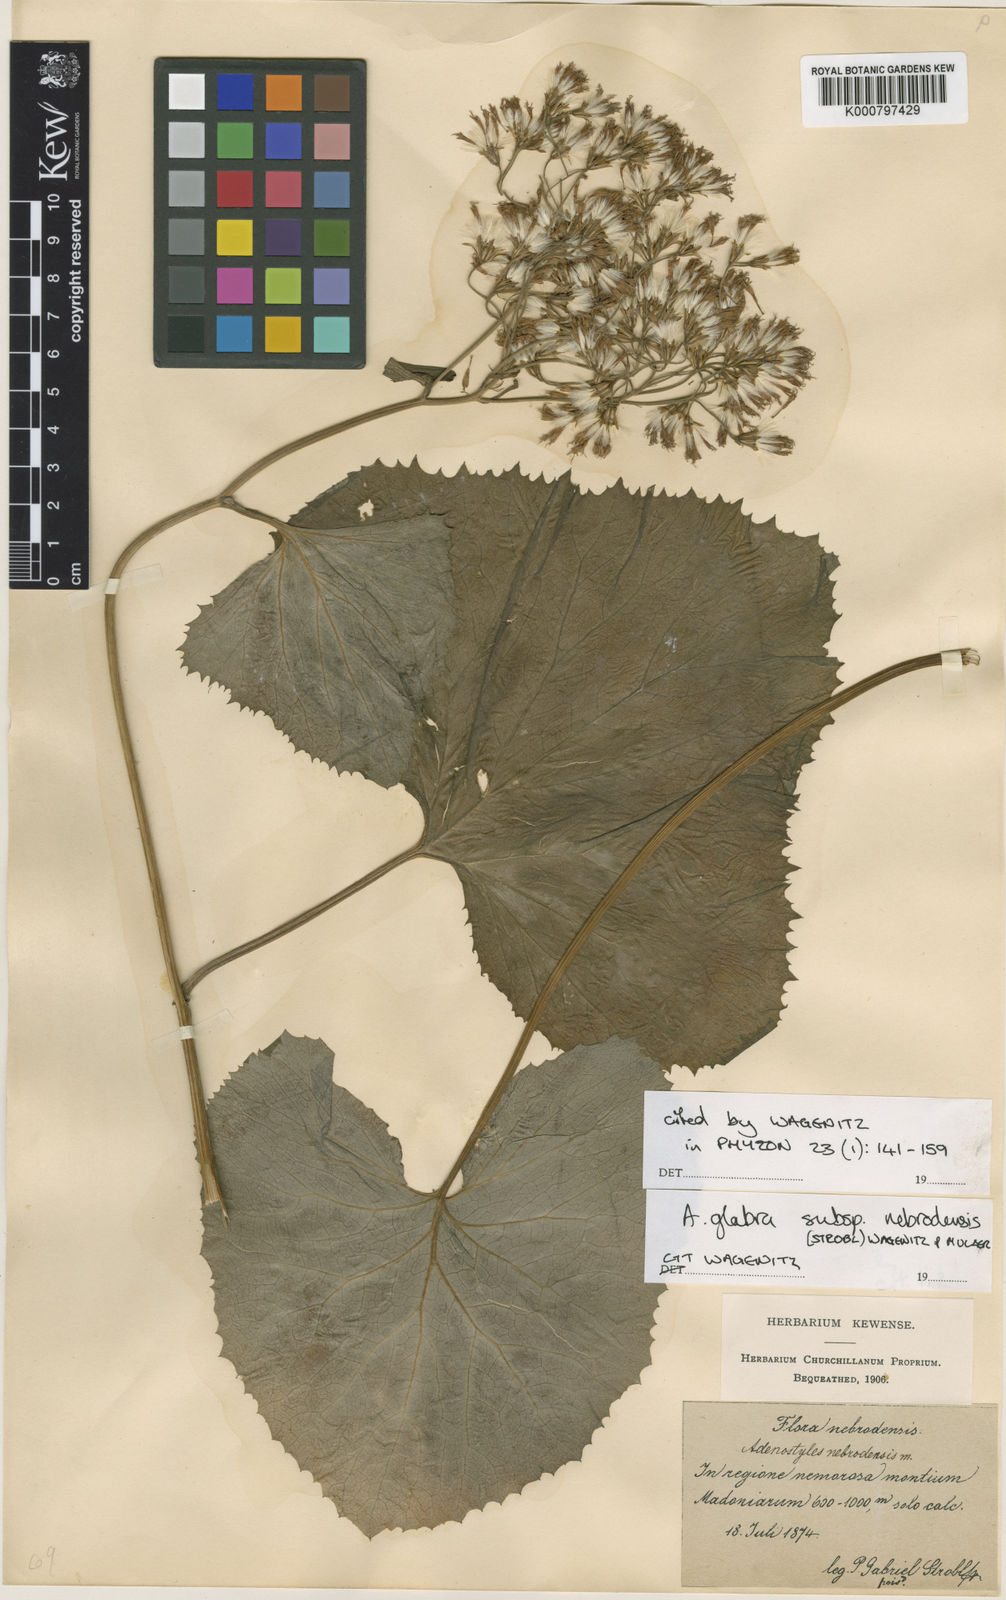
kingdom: Plantae
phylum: Tracheophyta
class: Magnoliopsida
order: Asterales
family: Asteraceae
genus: Linzia
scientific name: Linzia glabra
